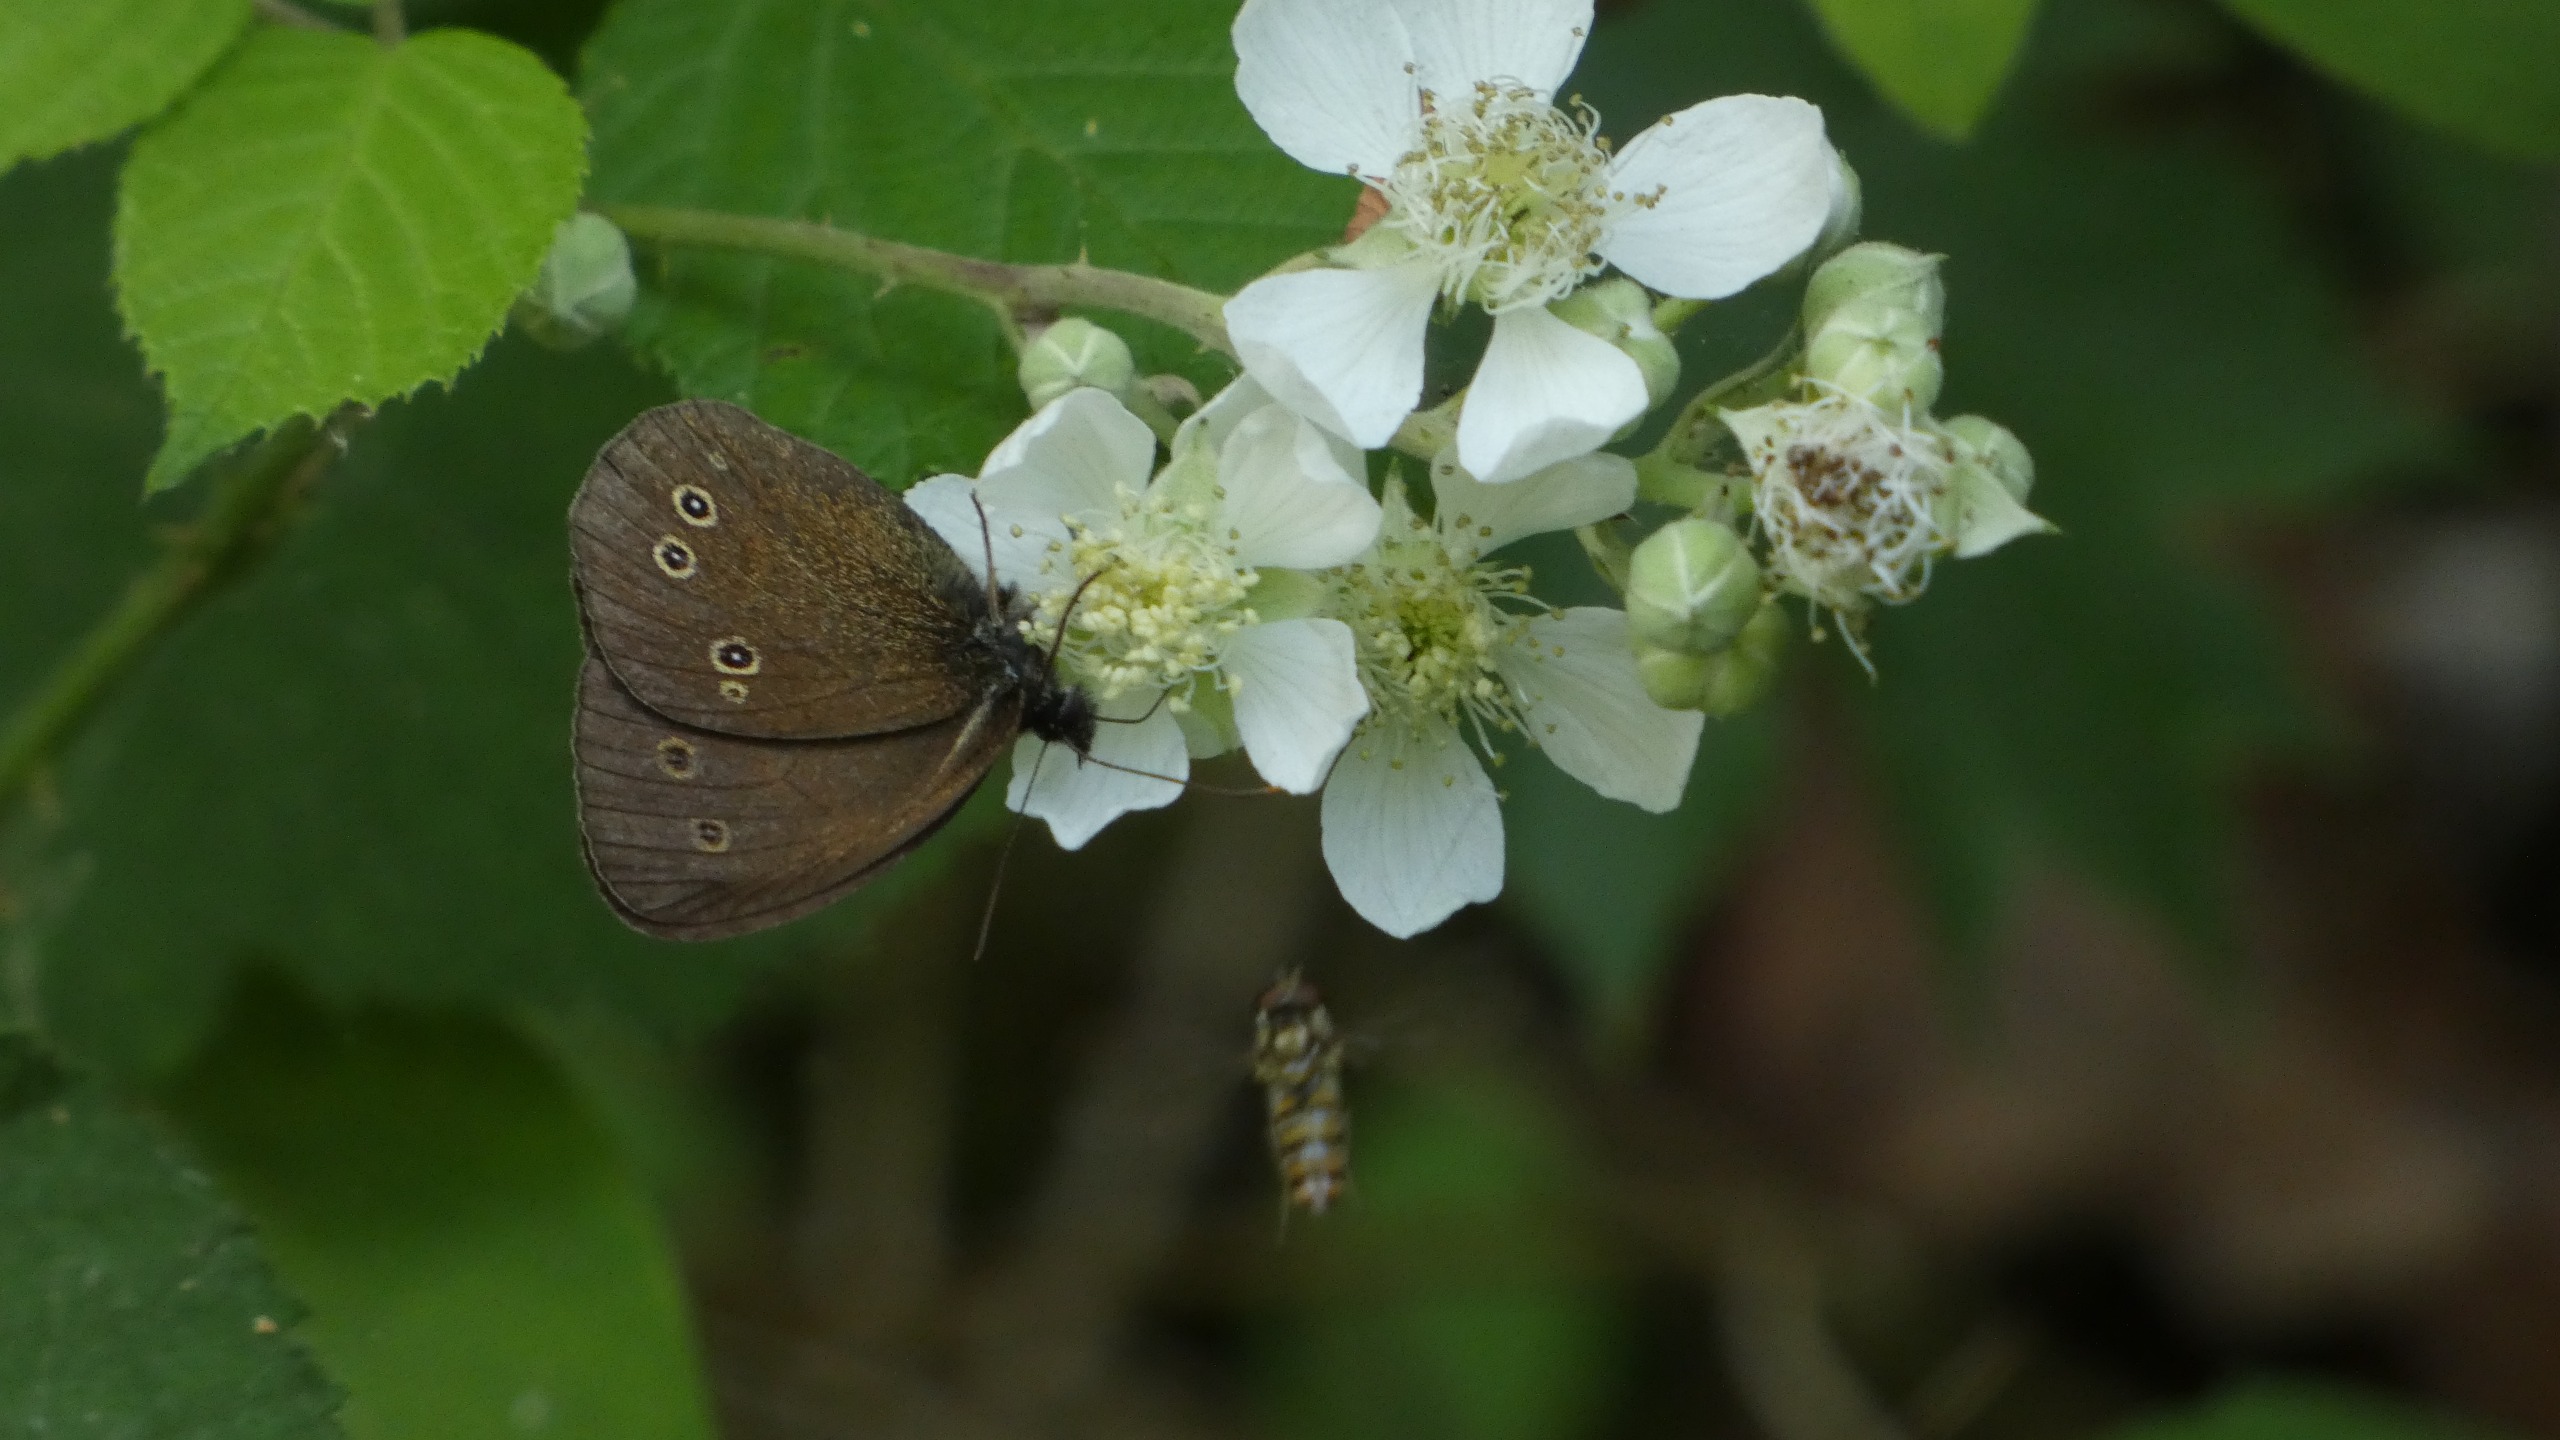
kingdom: Animalia
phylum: Arthropoda
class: Insecta
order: Lepidoptera
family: Nymphalidae
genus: Aphantopus
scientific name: Aphantopus hyperantus
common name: Engrandøje
